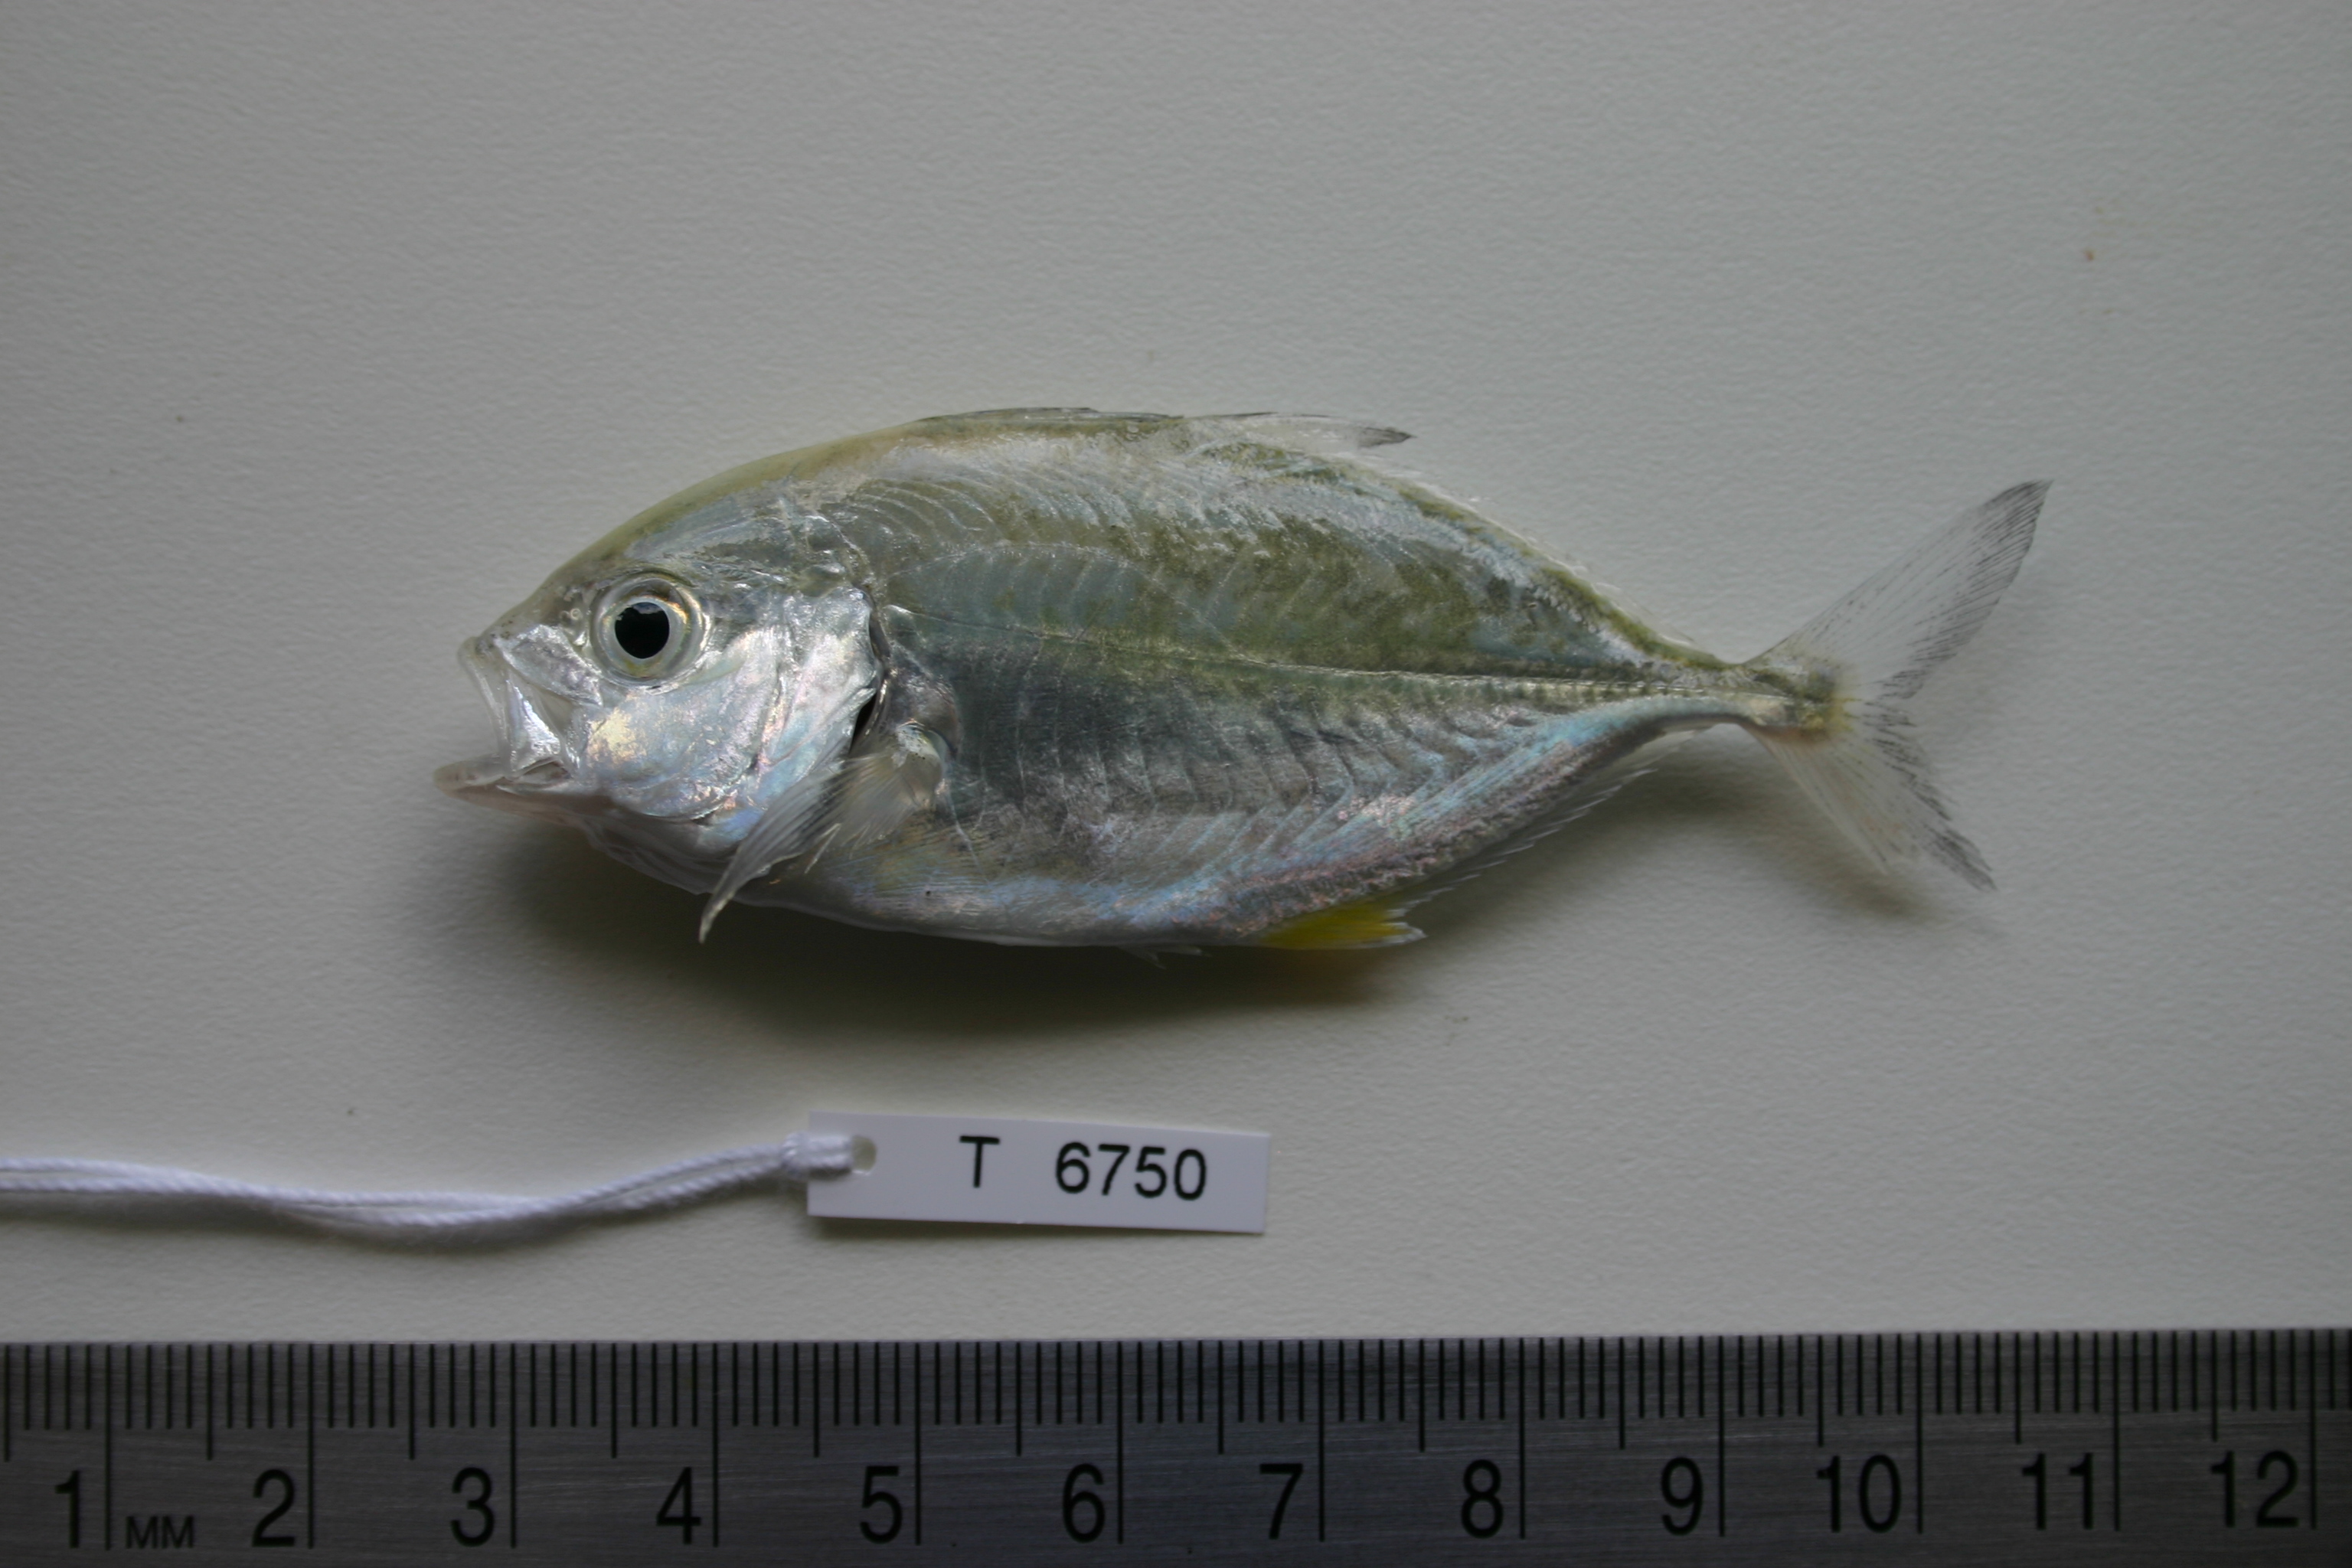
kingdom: Animalia
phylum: Chordata
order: Perciformes
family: Carangidae
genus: Caranx
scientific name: Caranx melampygus
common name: Bluefin trevally
